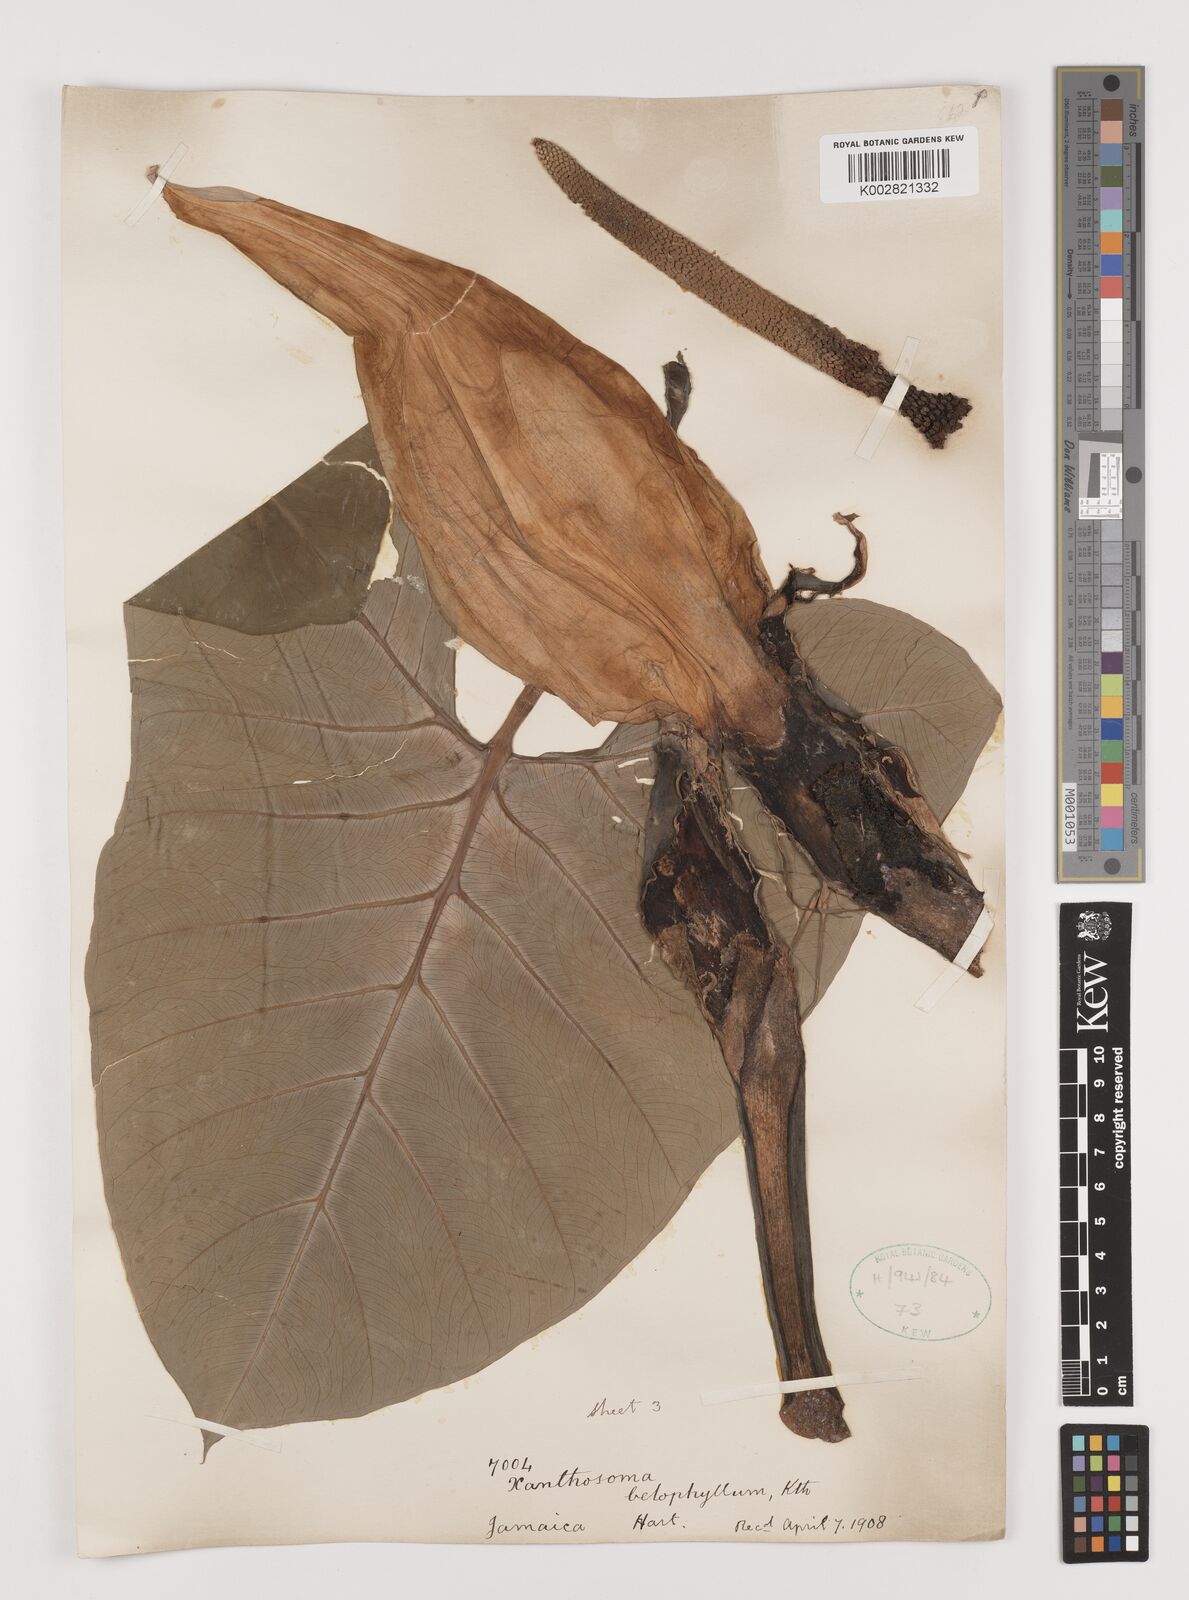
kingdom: Plantae
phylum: Tracheophyta
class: Liliopsida
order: Alismatales
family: Araceae
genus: Xanthosoma
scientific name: Xanthosoma belophyllum
